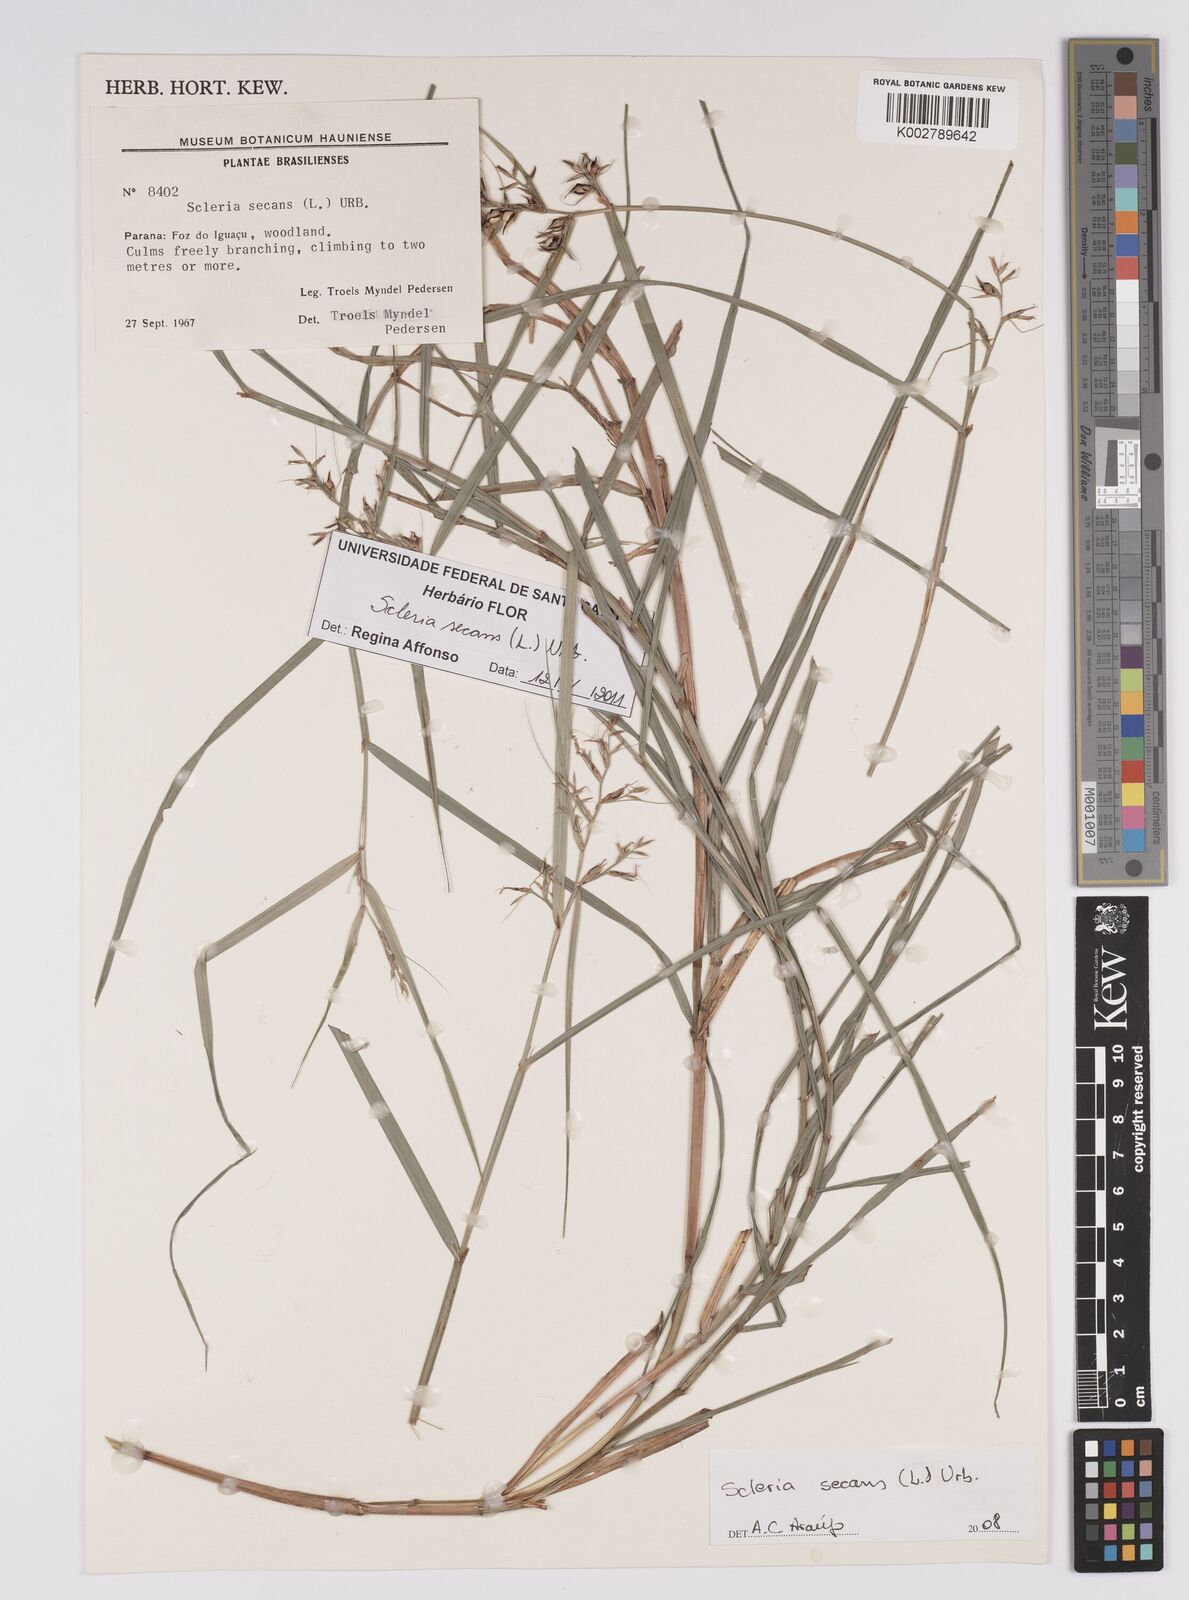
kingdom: Plantae
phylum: Tracheophyta
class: Liliopsida
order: Poales
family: Cyperaceae
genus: Scleria
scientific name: Scleria secans
